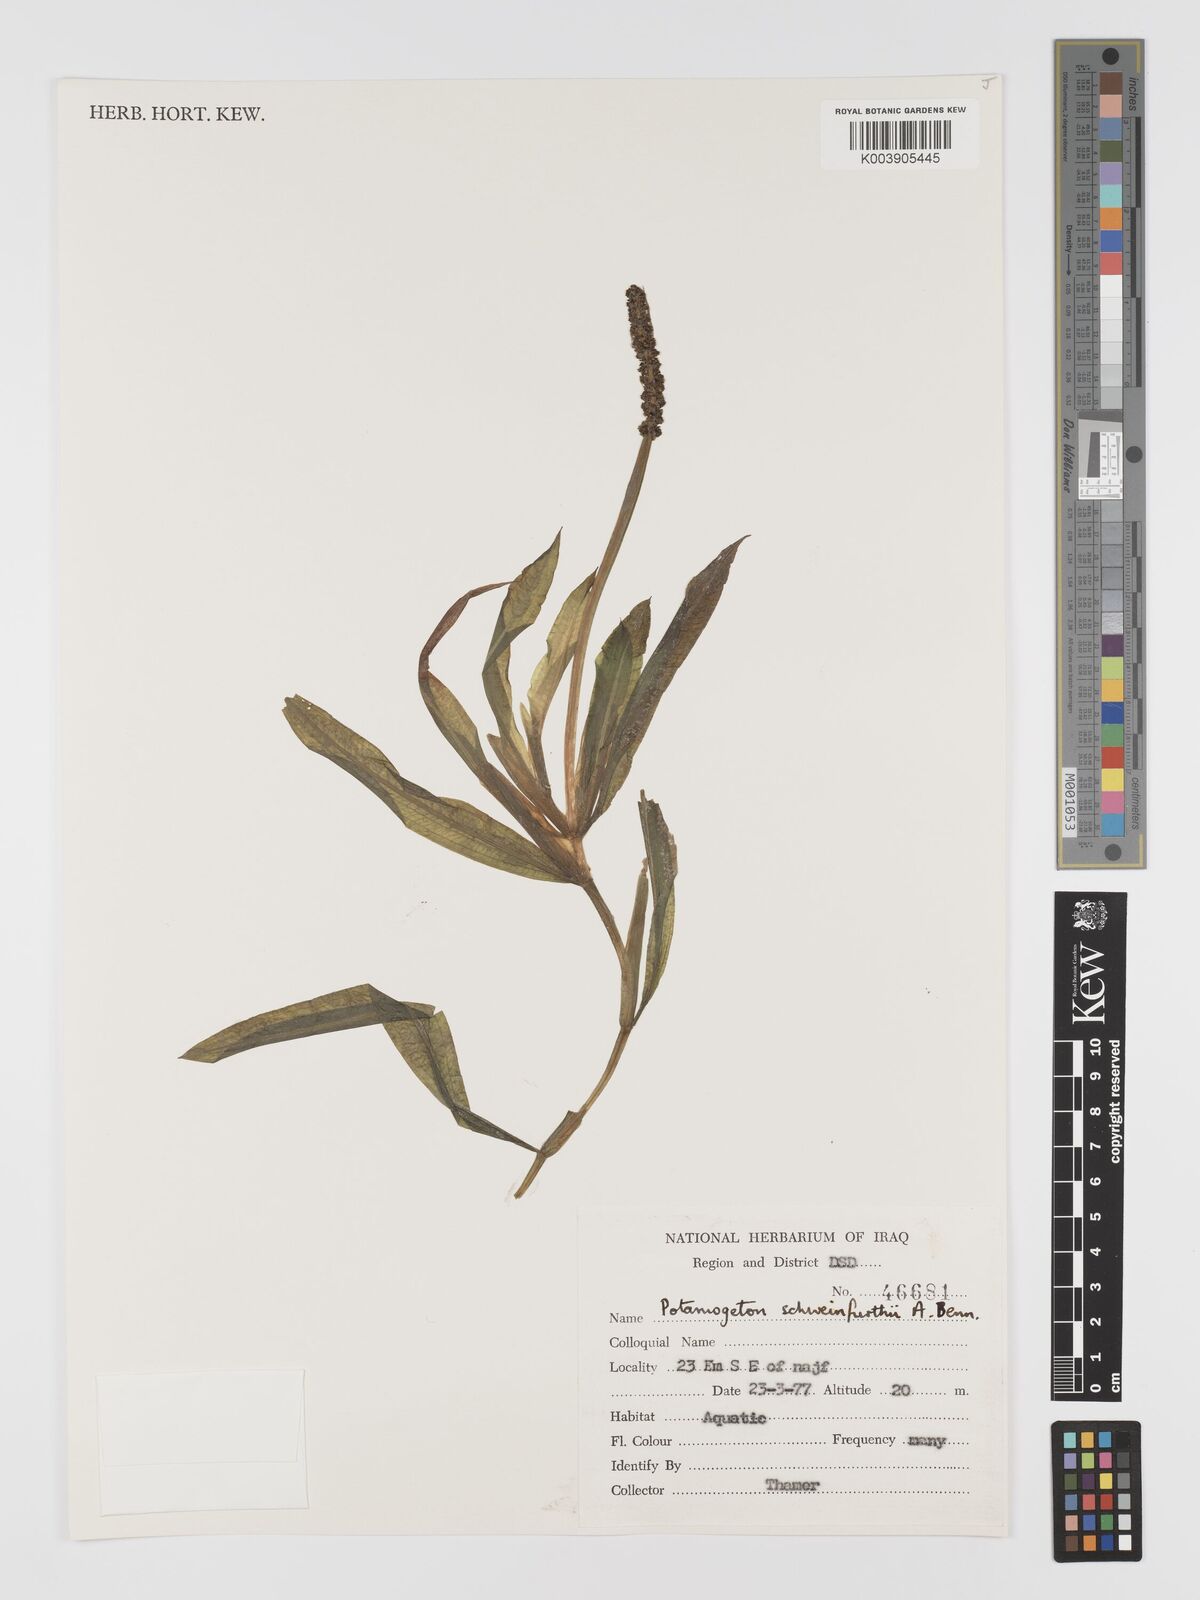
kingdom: Plantae
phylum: Tracheophyta
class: Liliopsida
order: Alismatales
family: Potamogetonaceae
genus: Potamogeton
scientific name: Potamogeton schweinfurthii
